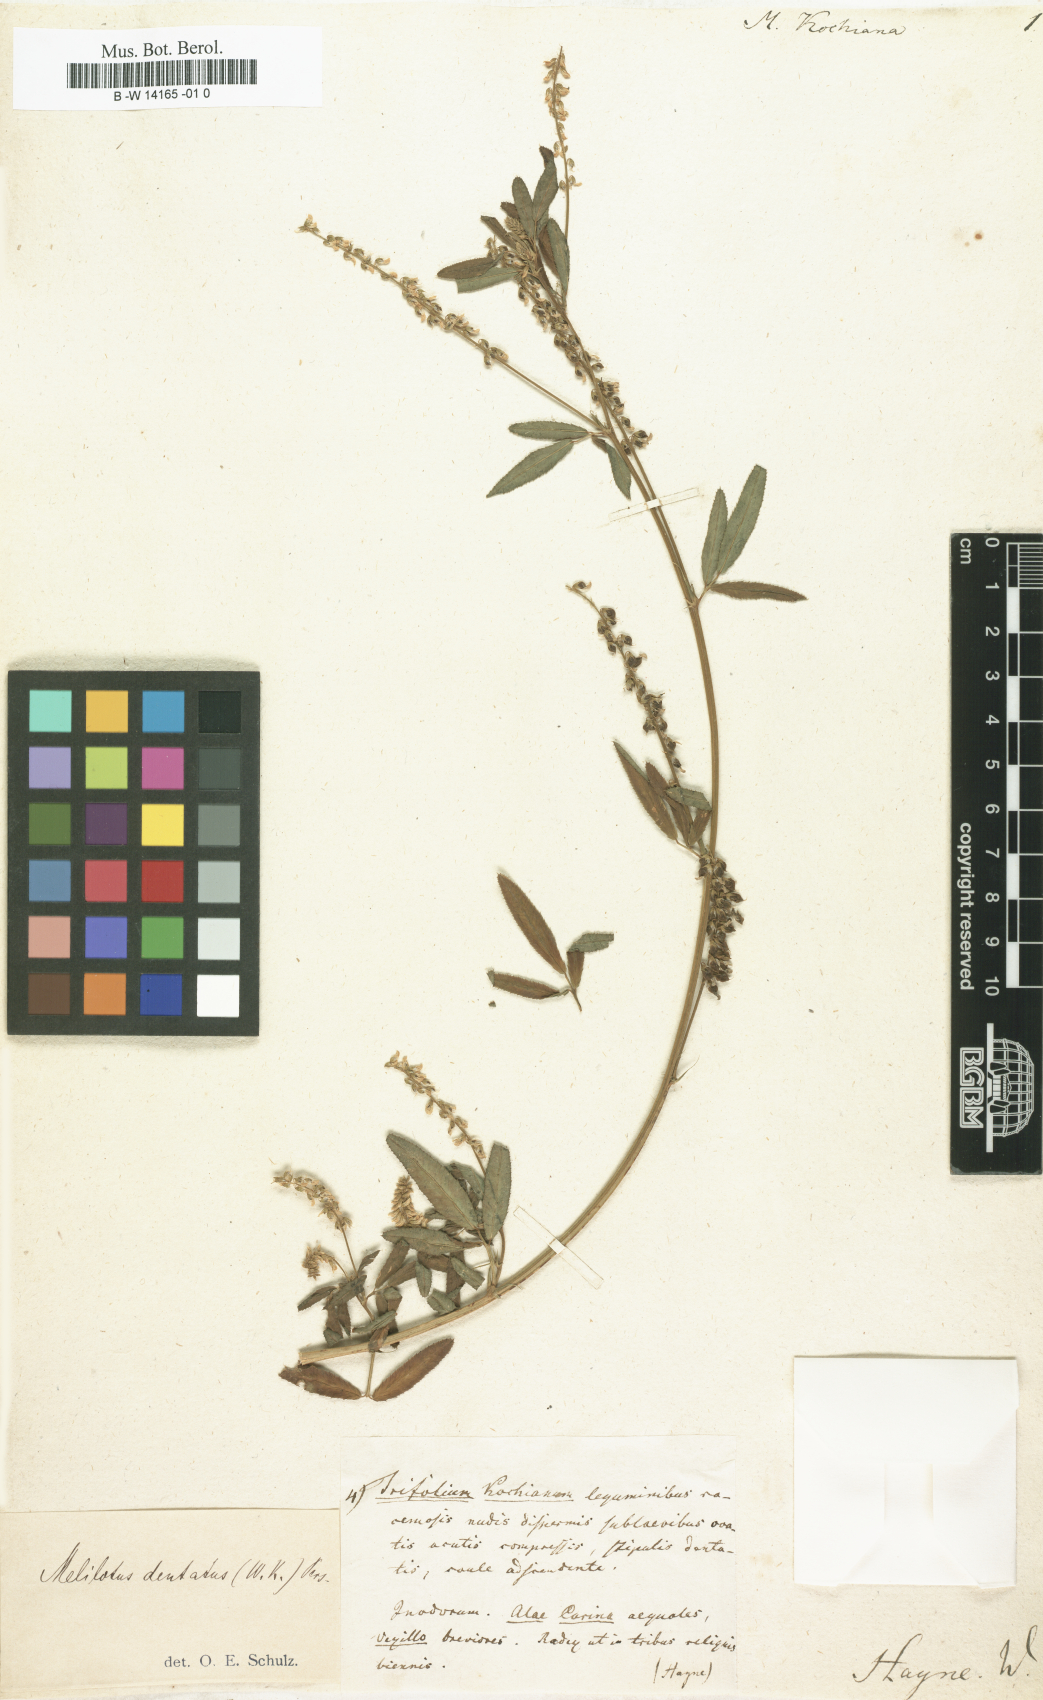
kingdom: Plantae
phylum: Tracheophyta
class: Magnoliopsida
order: Fabales
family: Fabaceae
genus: Melilotus
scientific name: Melilotus
